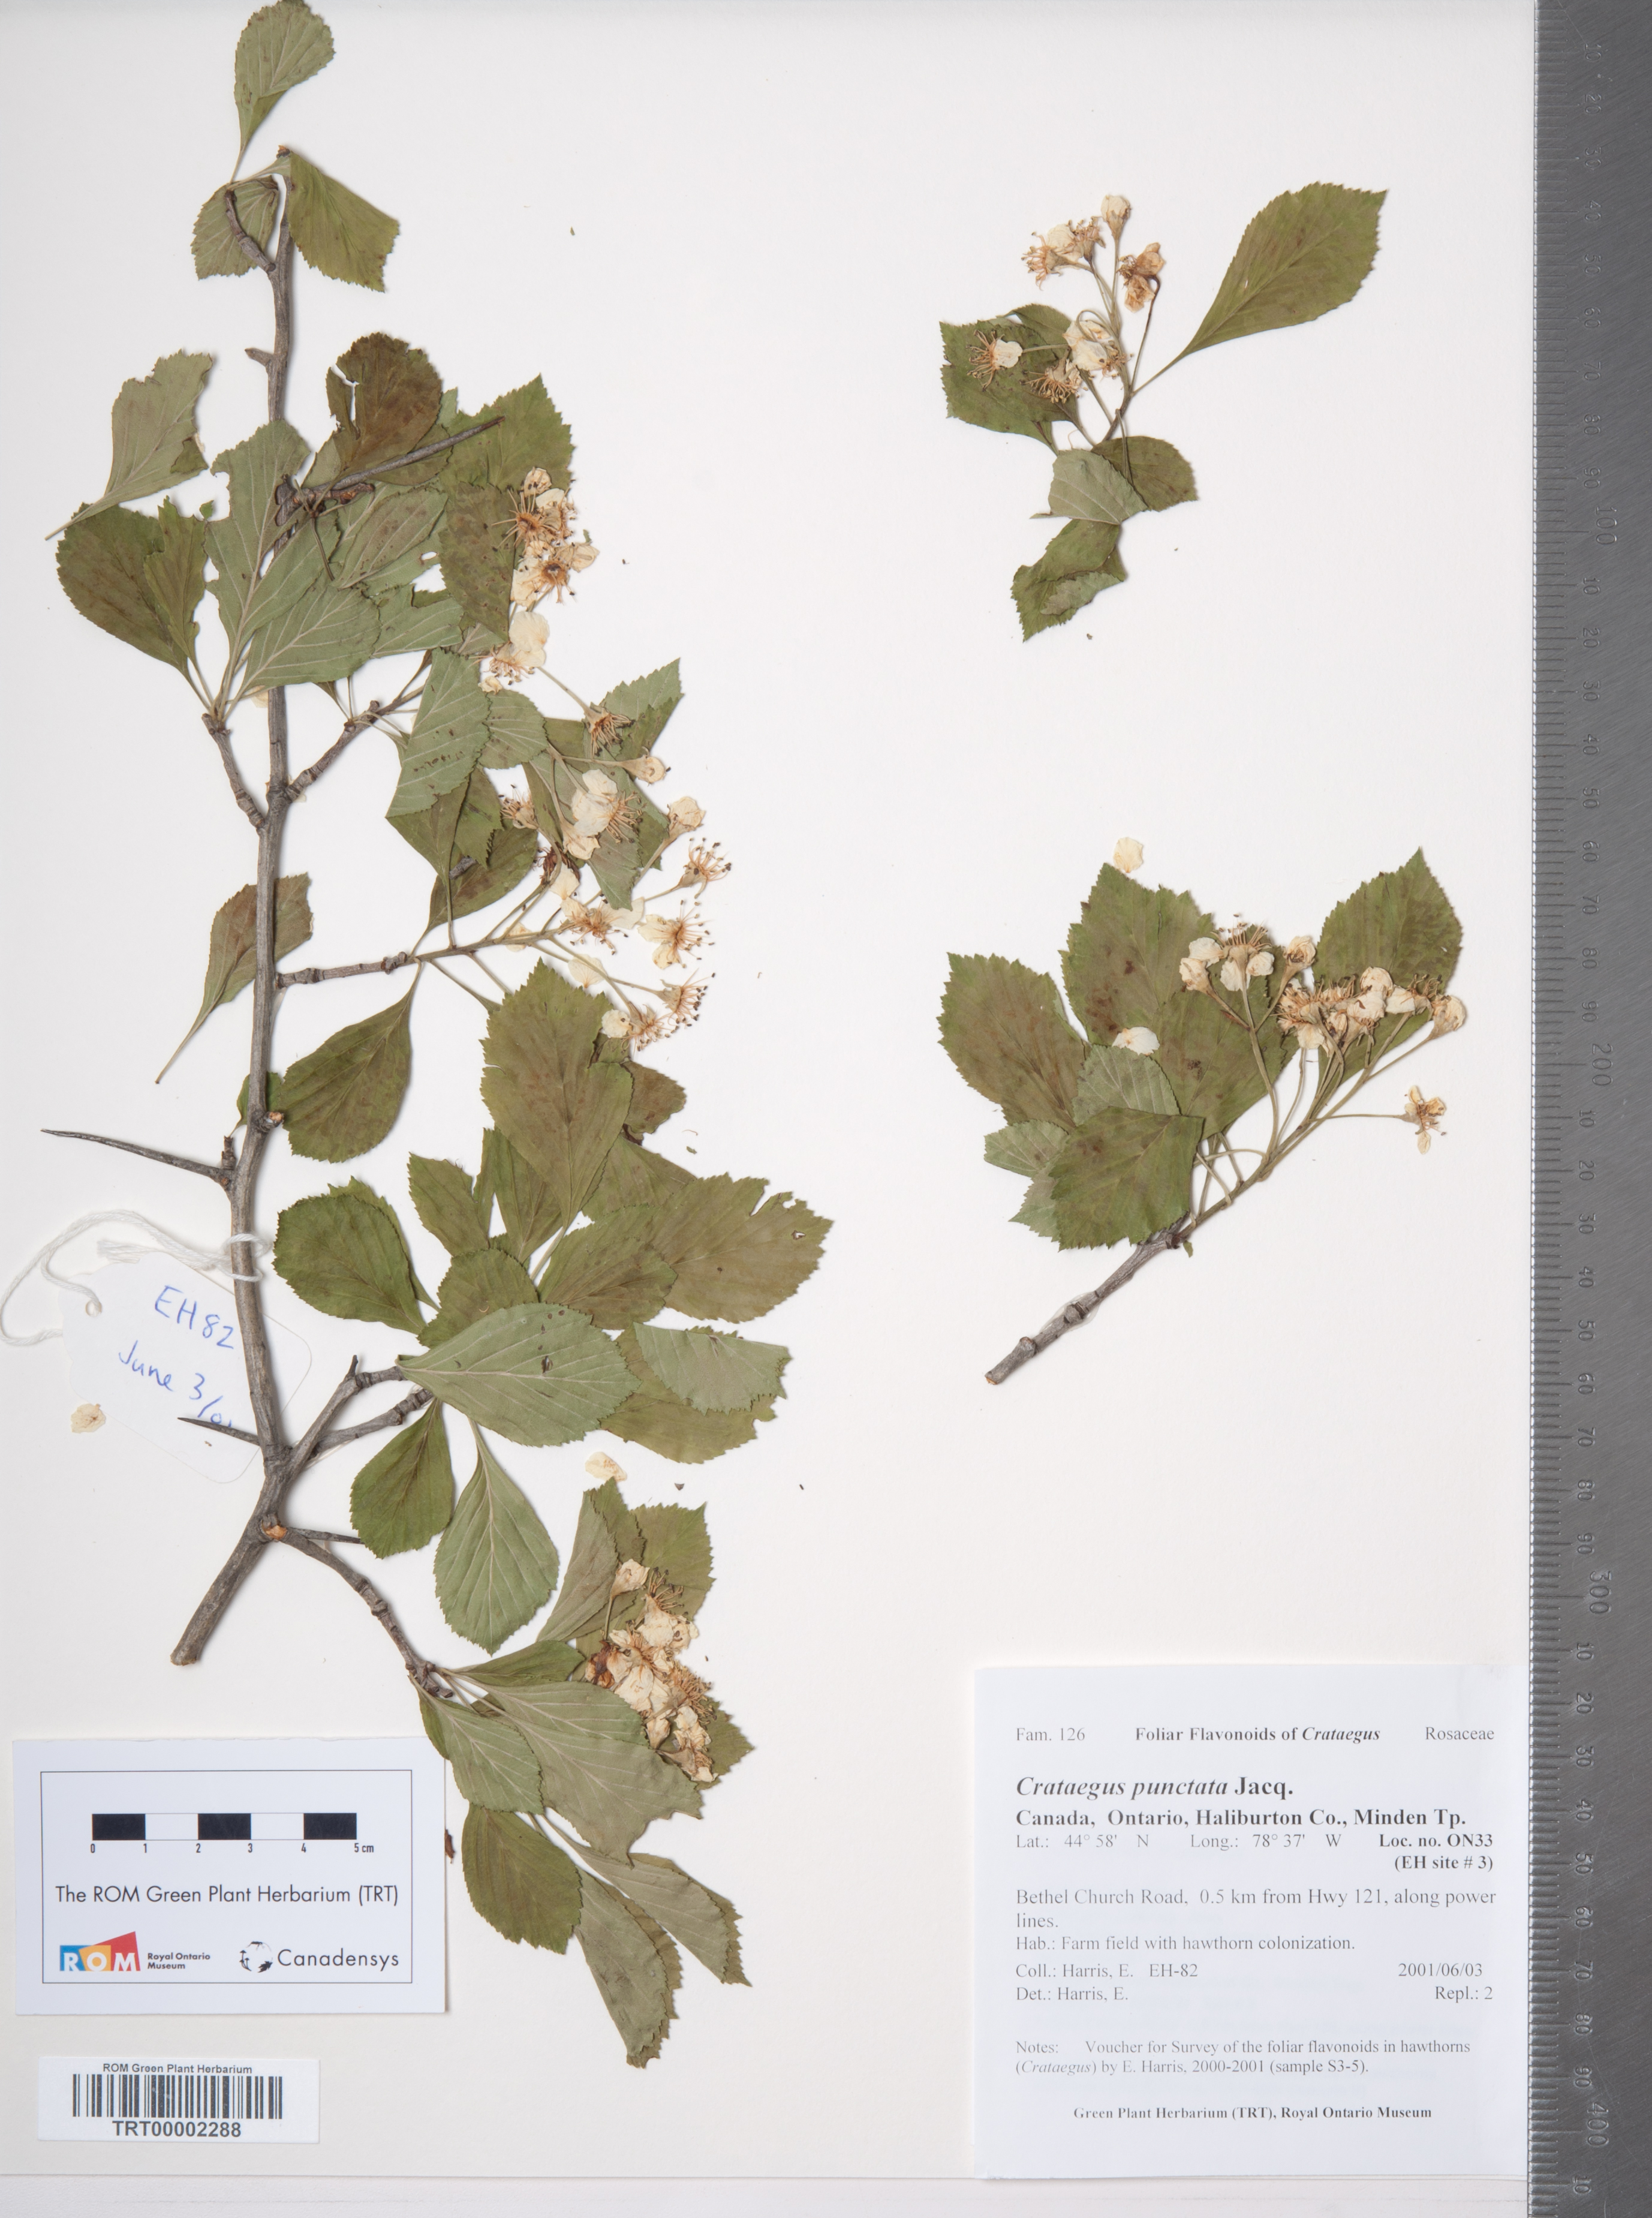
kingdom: Plantae
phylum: Tracheophyta
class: Magnoliopsida
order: Rosales
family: Rosaceae
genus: Crataegus
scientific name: Crataegus punctata
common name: Dotted hawthorn
